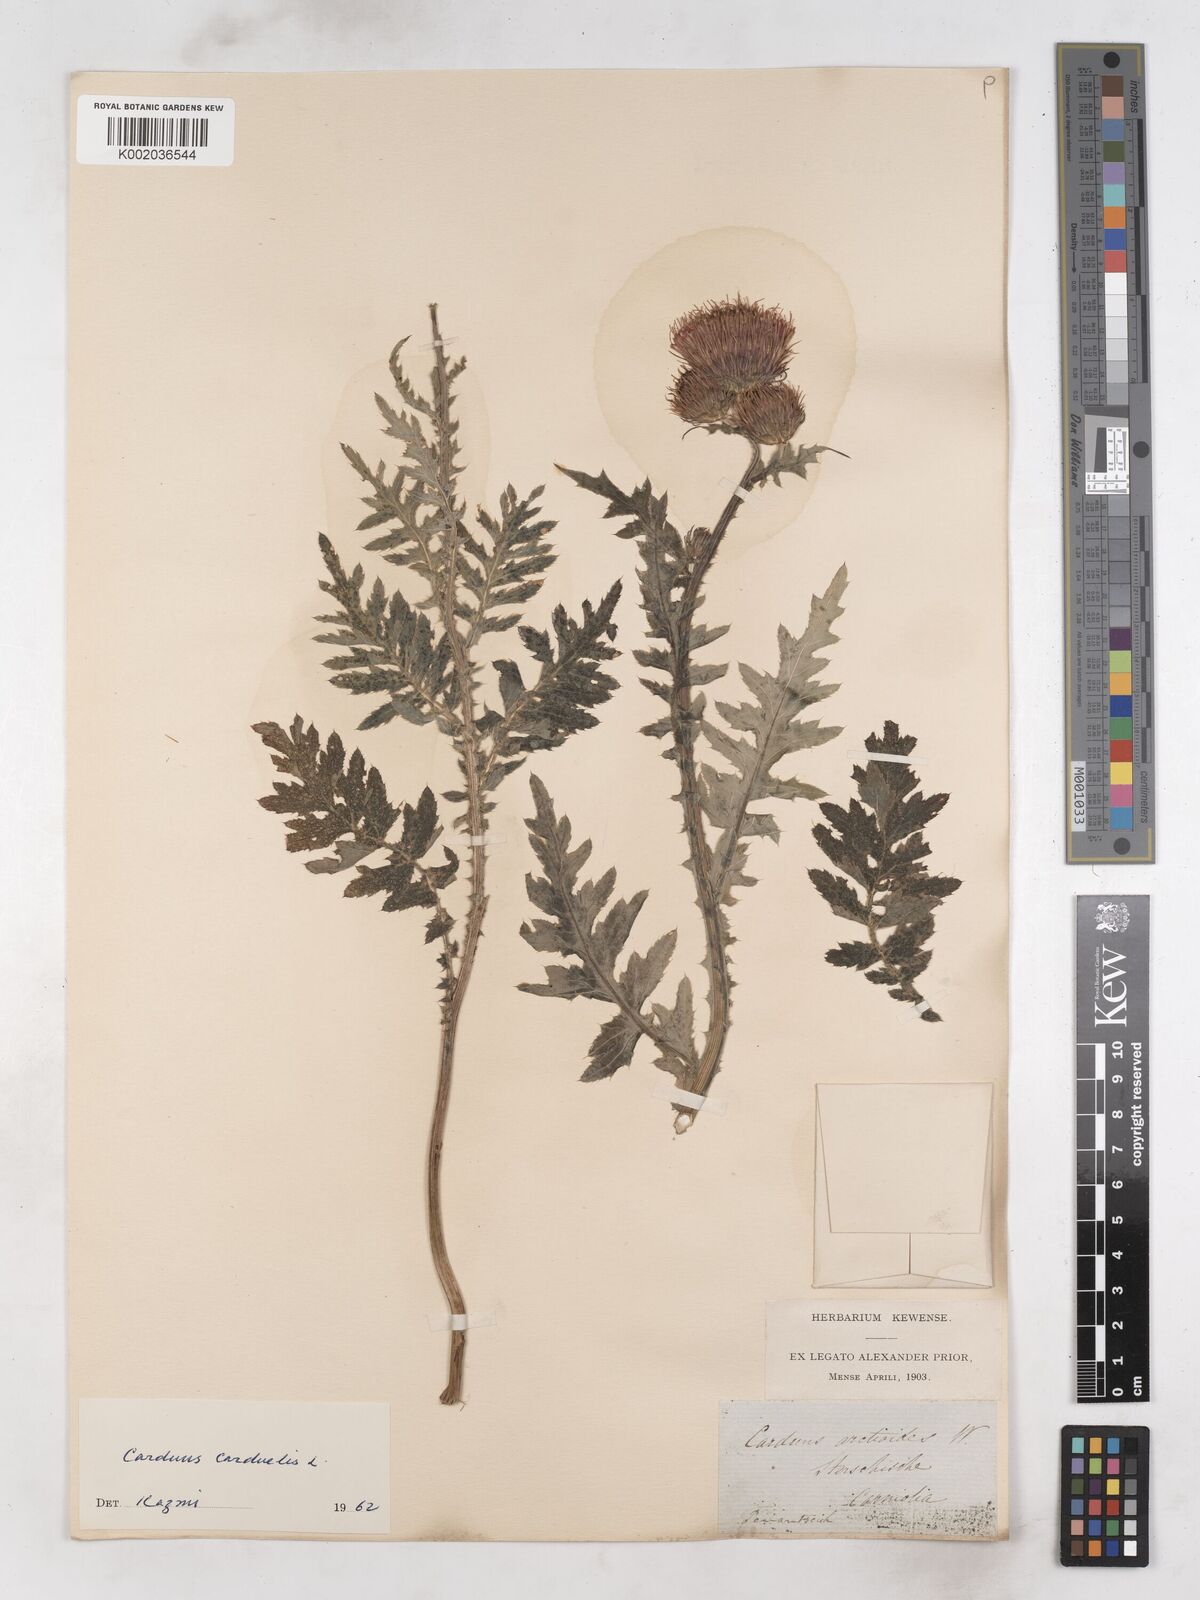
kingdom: Plantae
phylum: Tracheophyta
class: Magnoliopsida
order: Asterales
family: Asteraceae
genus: Carduus
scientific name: Carduus carduelis
